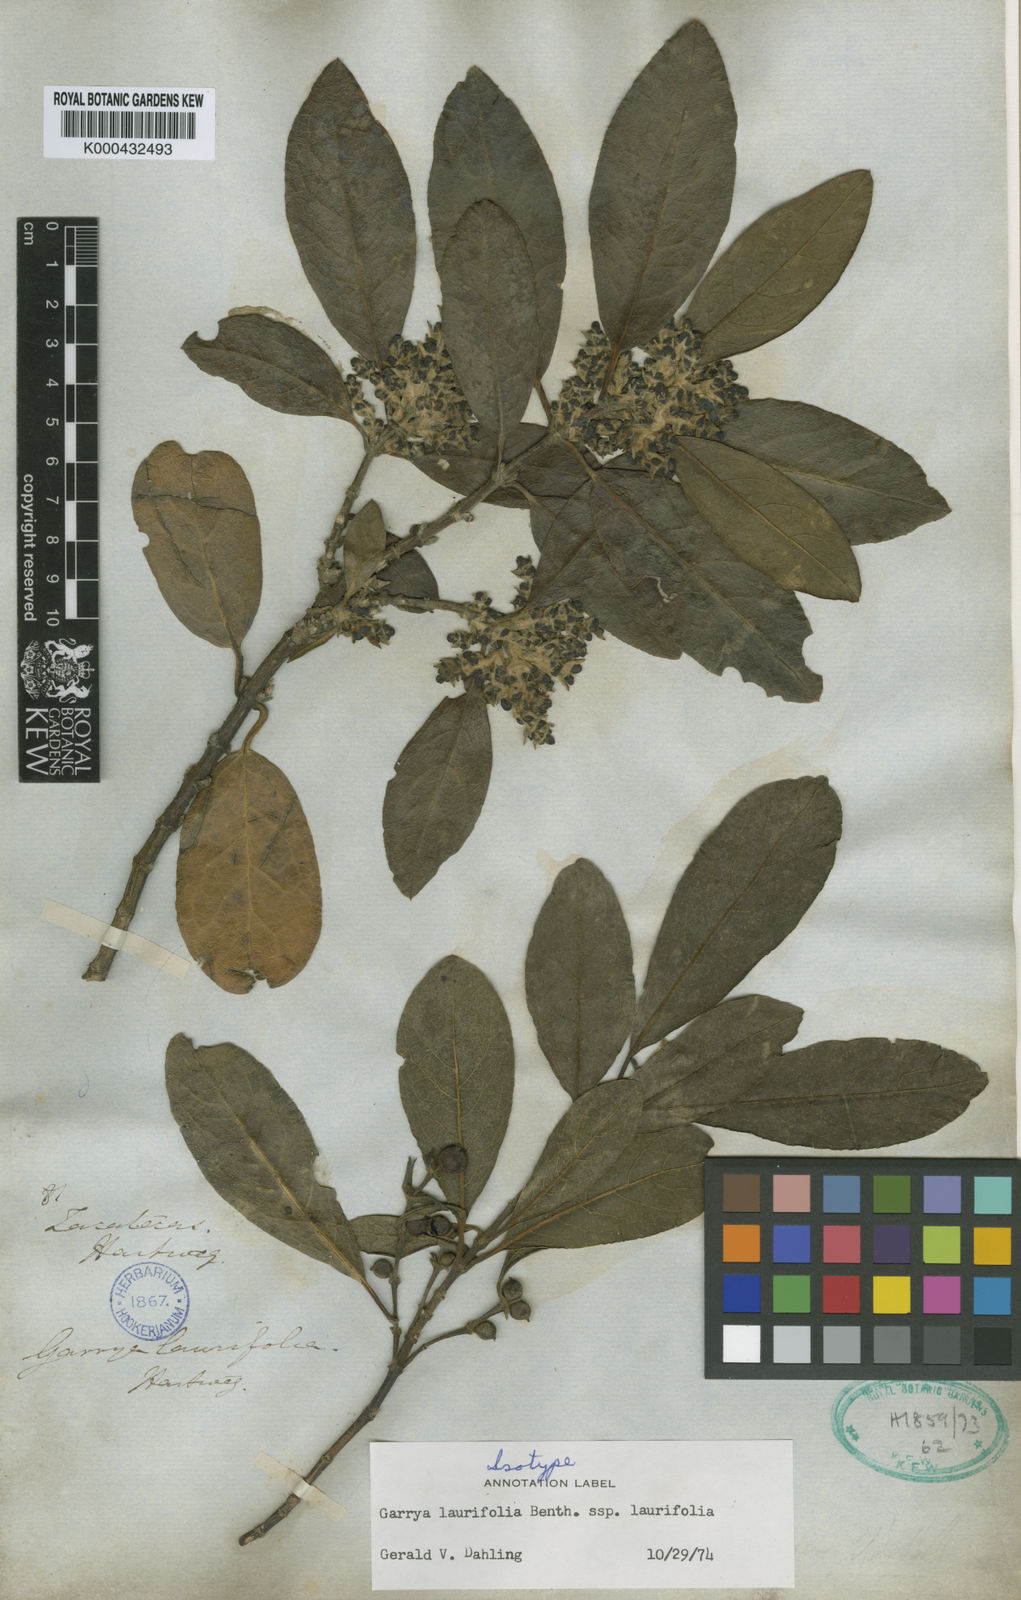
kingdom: Plantae
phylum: Tracheophyta
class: Magnoliopsida
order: Garryales
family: Garryaceae
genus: Garrya
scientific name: Garrya laurifolia
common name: Cuachichic
